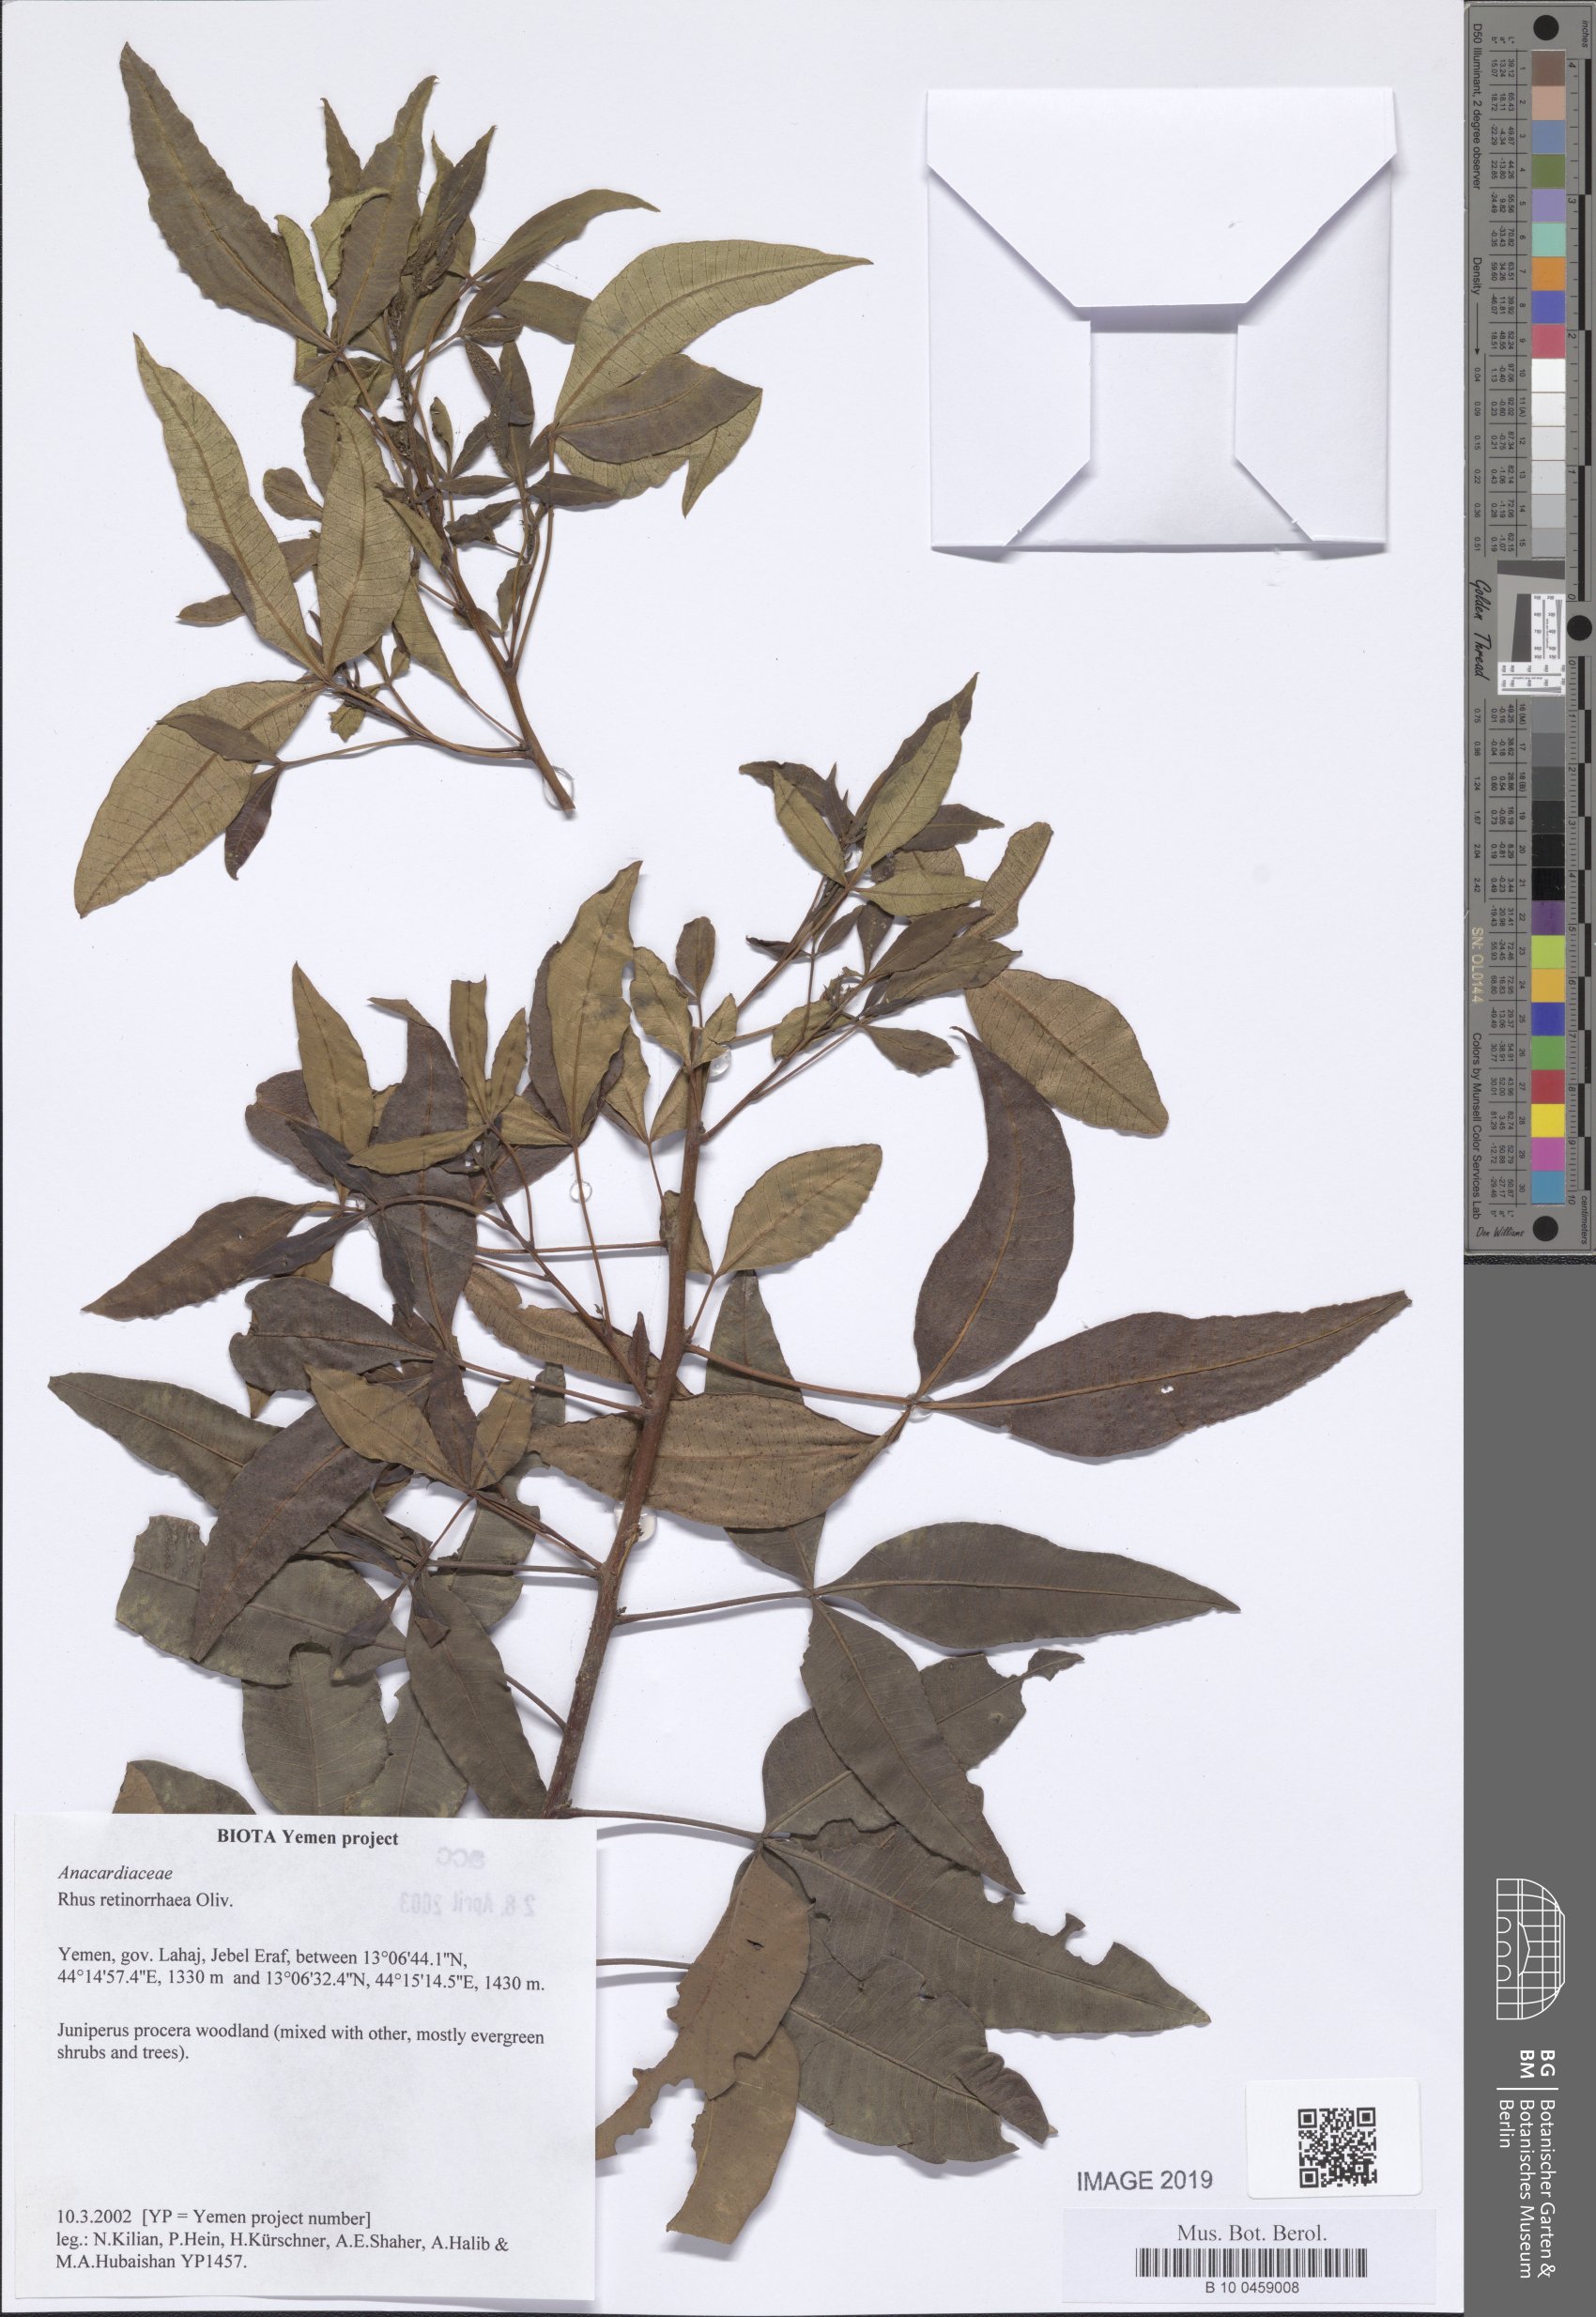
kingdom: Plantae
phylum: Tracheophyta
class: Magnoliopsida
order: Sapindales
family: Anacardiaceae
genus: Searsia
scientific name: Searsia retinorrhoea
